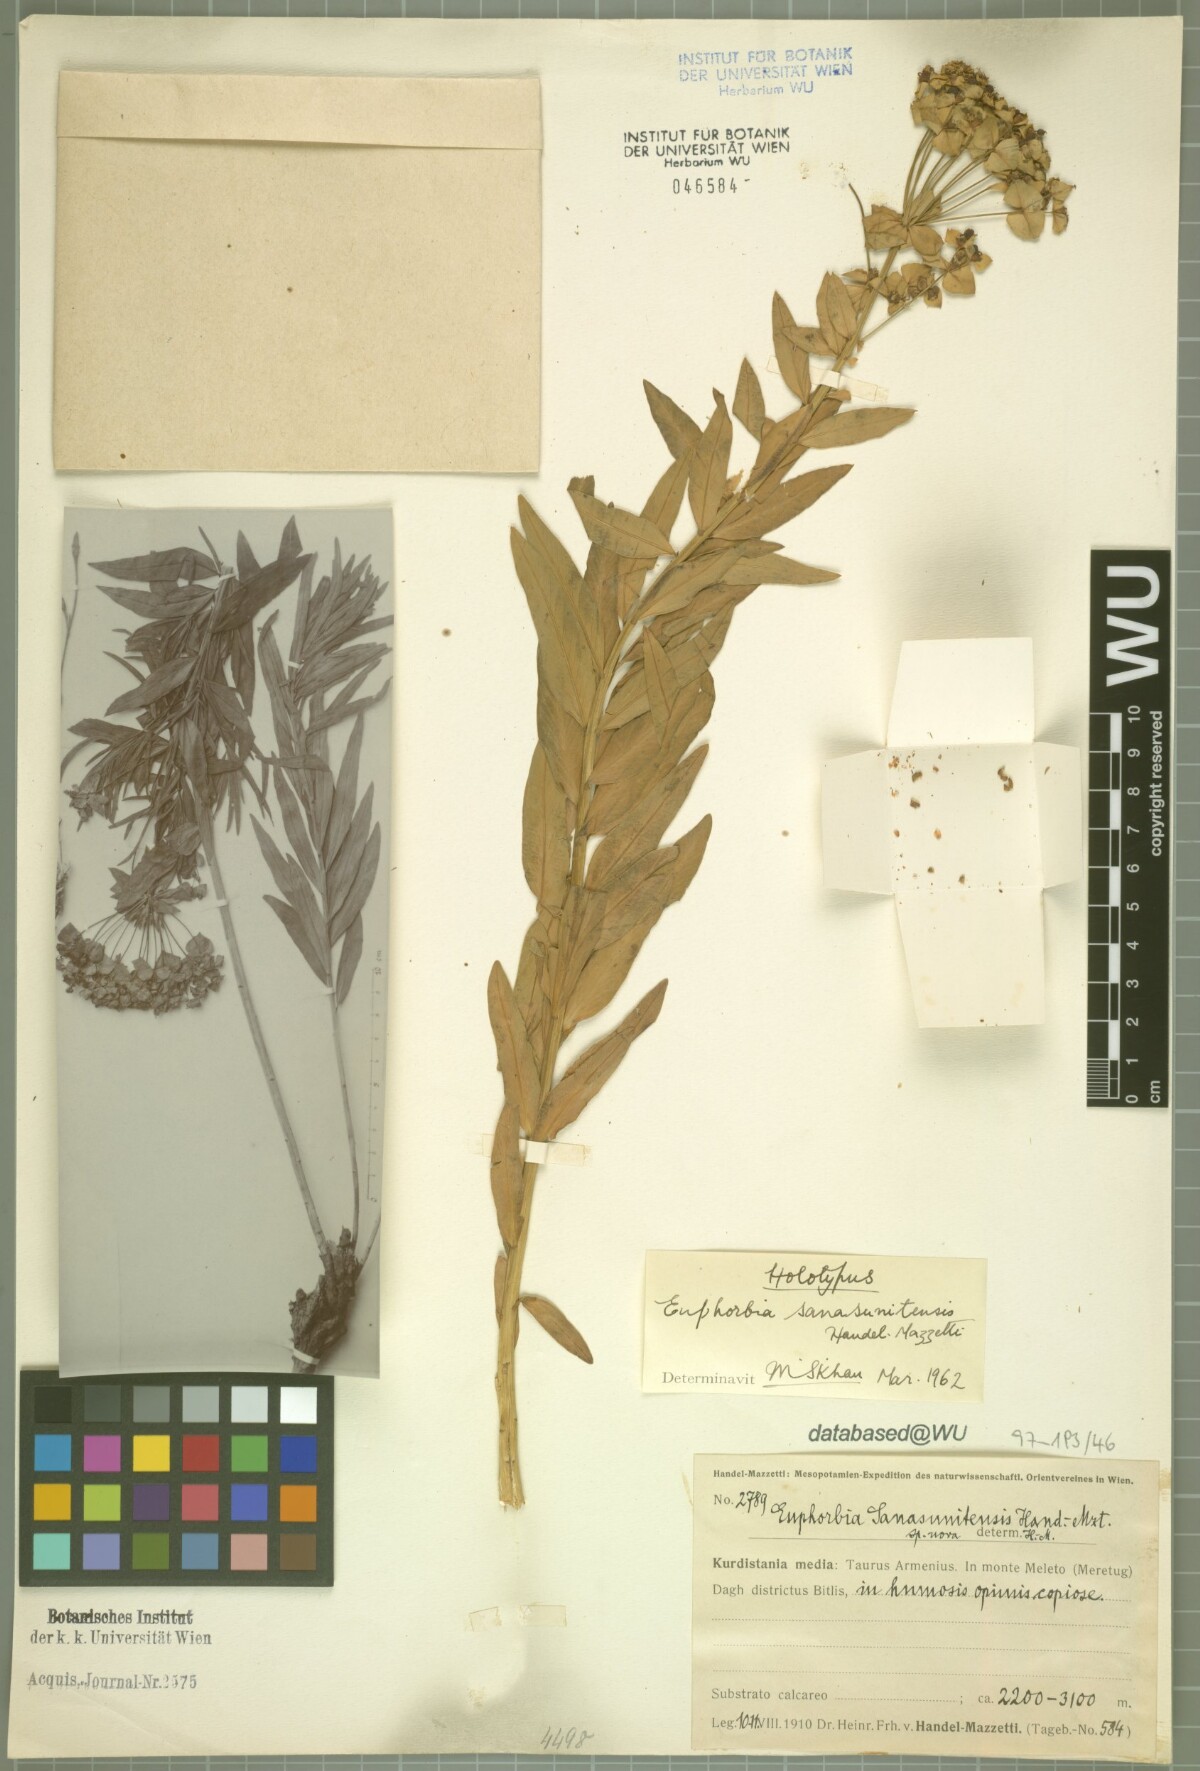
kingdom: Plantae
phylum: Tracheophyta
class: Magnoliopsida
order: Malpighiales
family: Euphorbiaceae
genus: Euphorbia
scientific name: Euphorbia iberica
